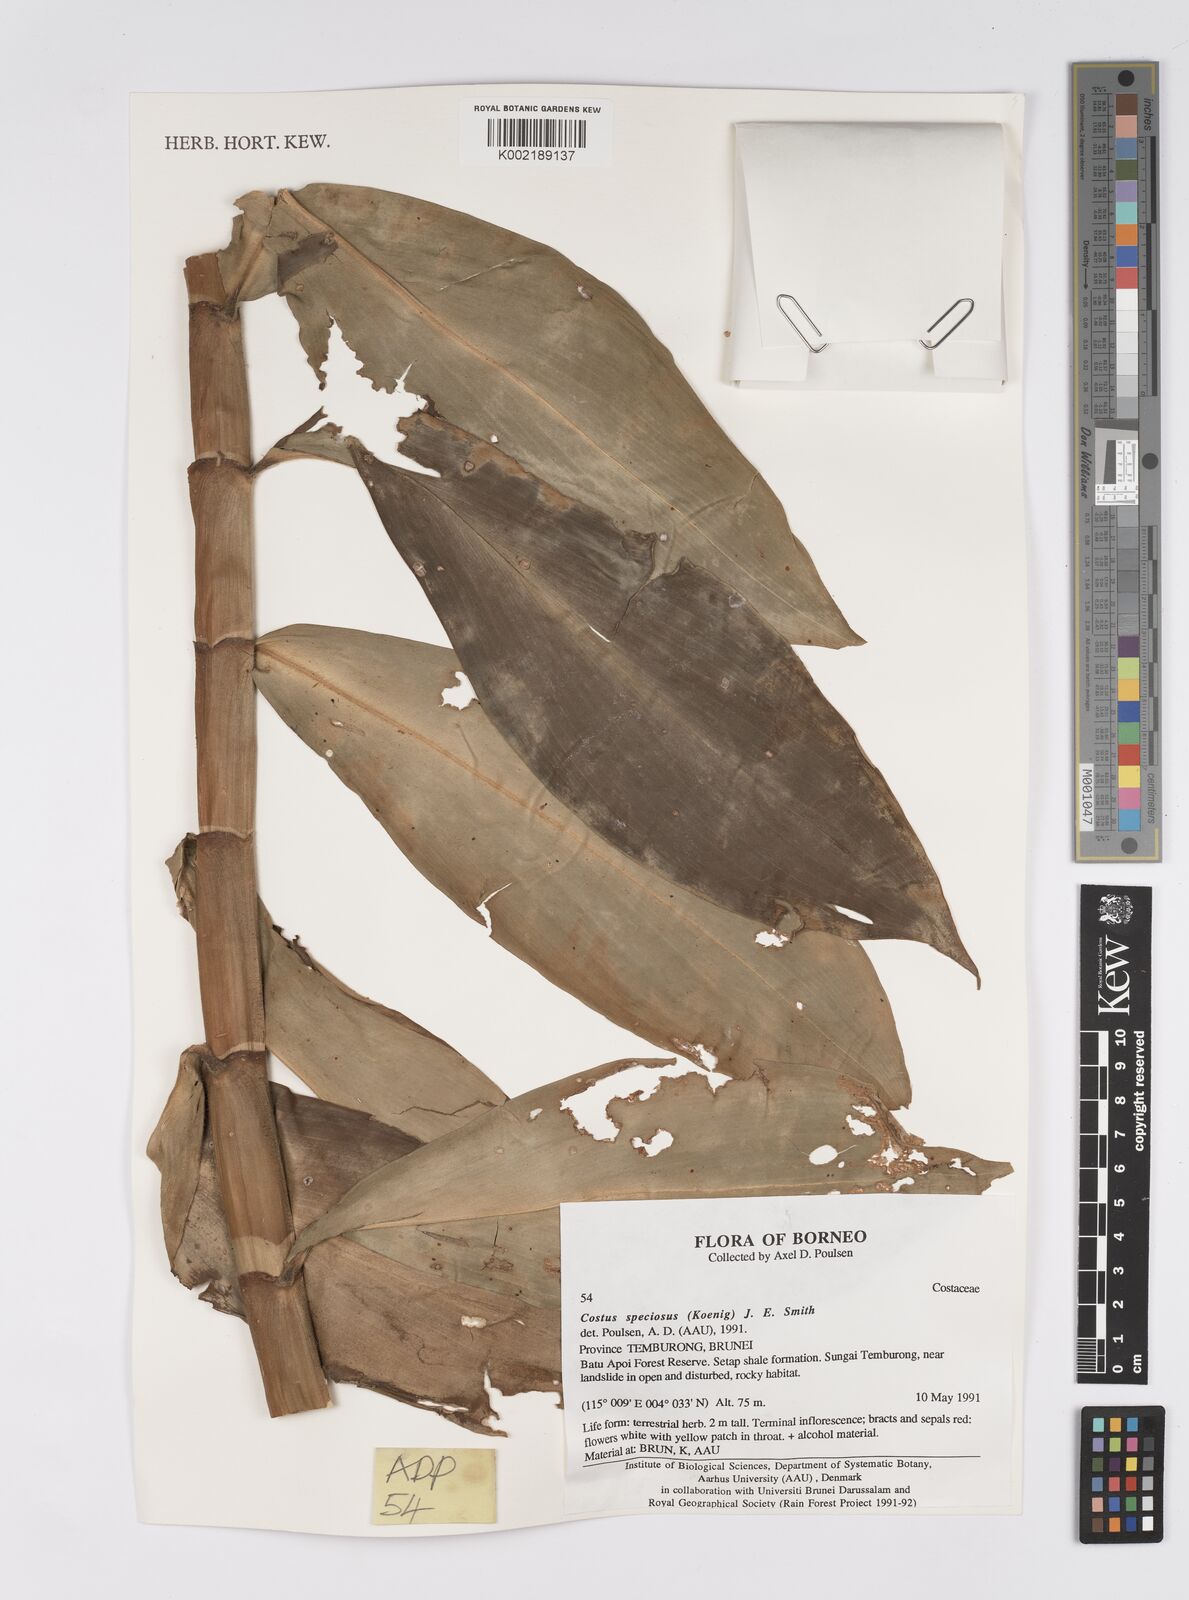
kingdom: Plantae
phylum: Tracheophyta
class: Liliopsida
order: Zingiberales
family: Costaceae
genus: Hellenia
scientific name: Hellenia speciosa
